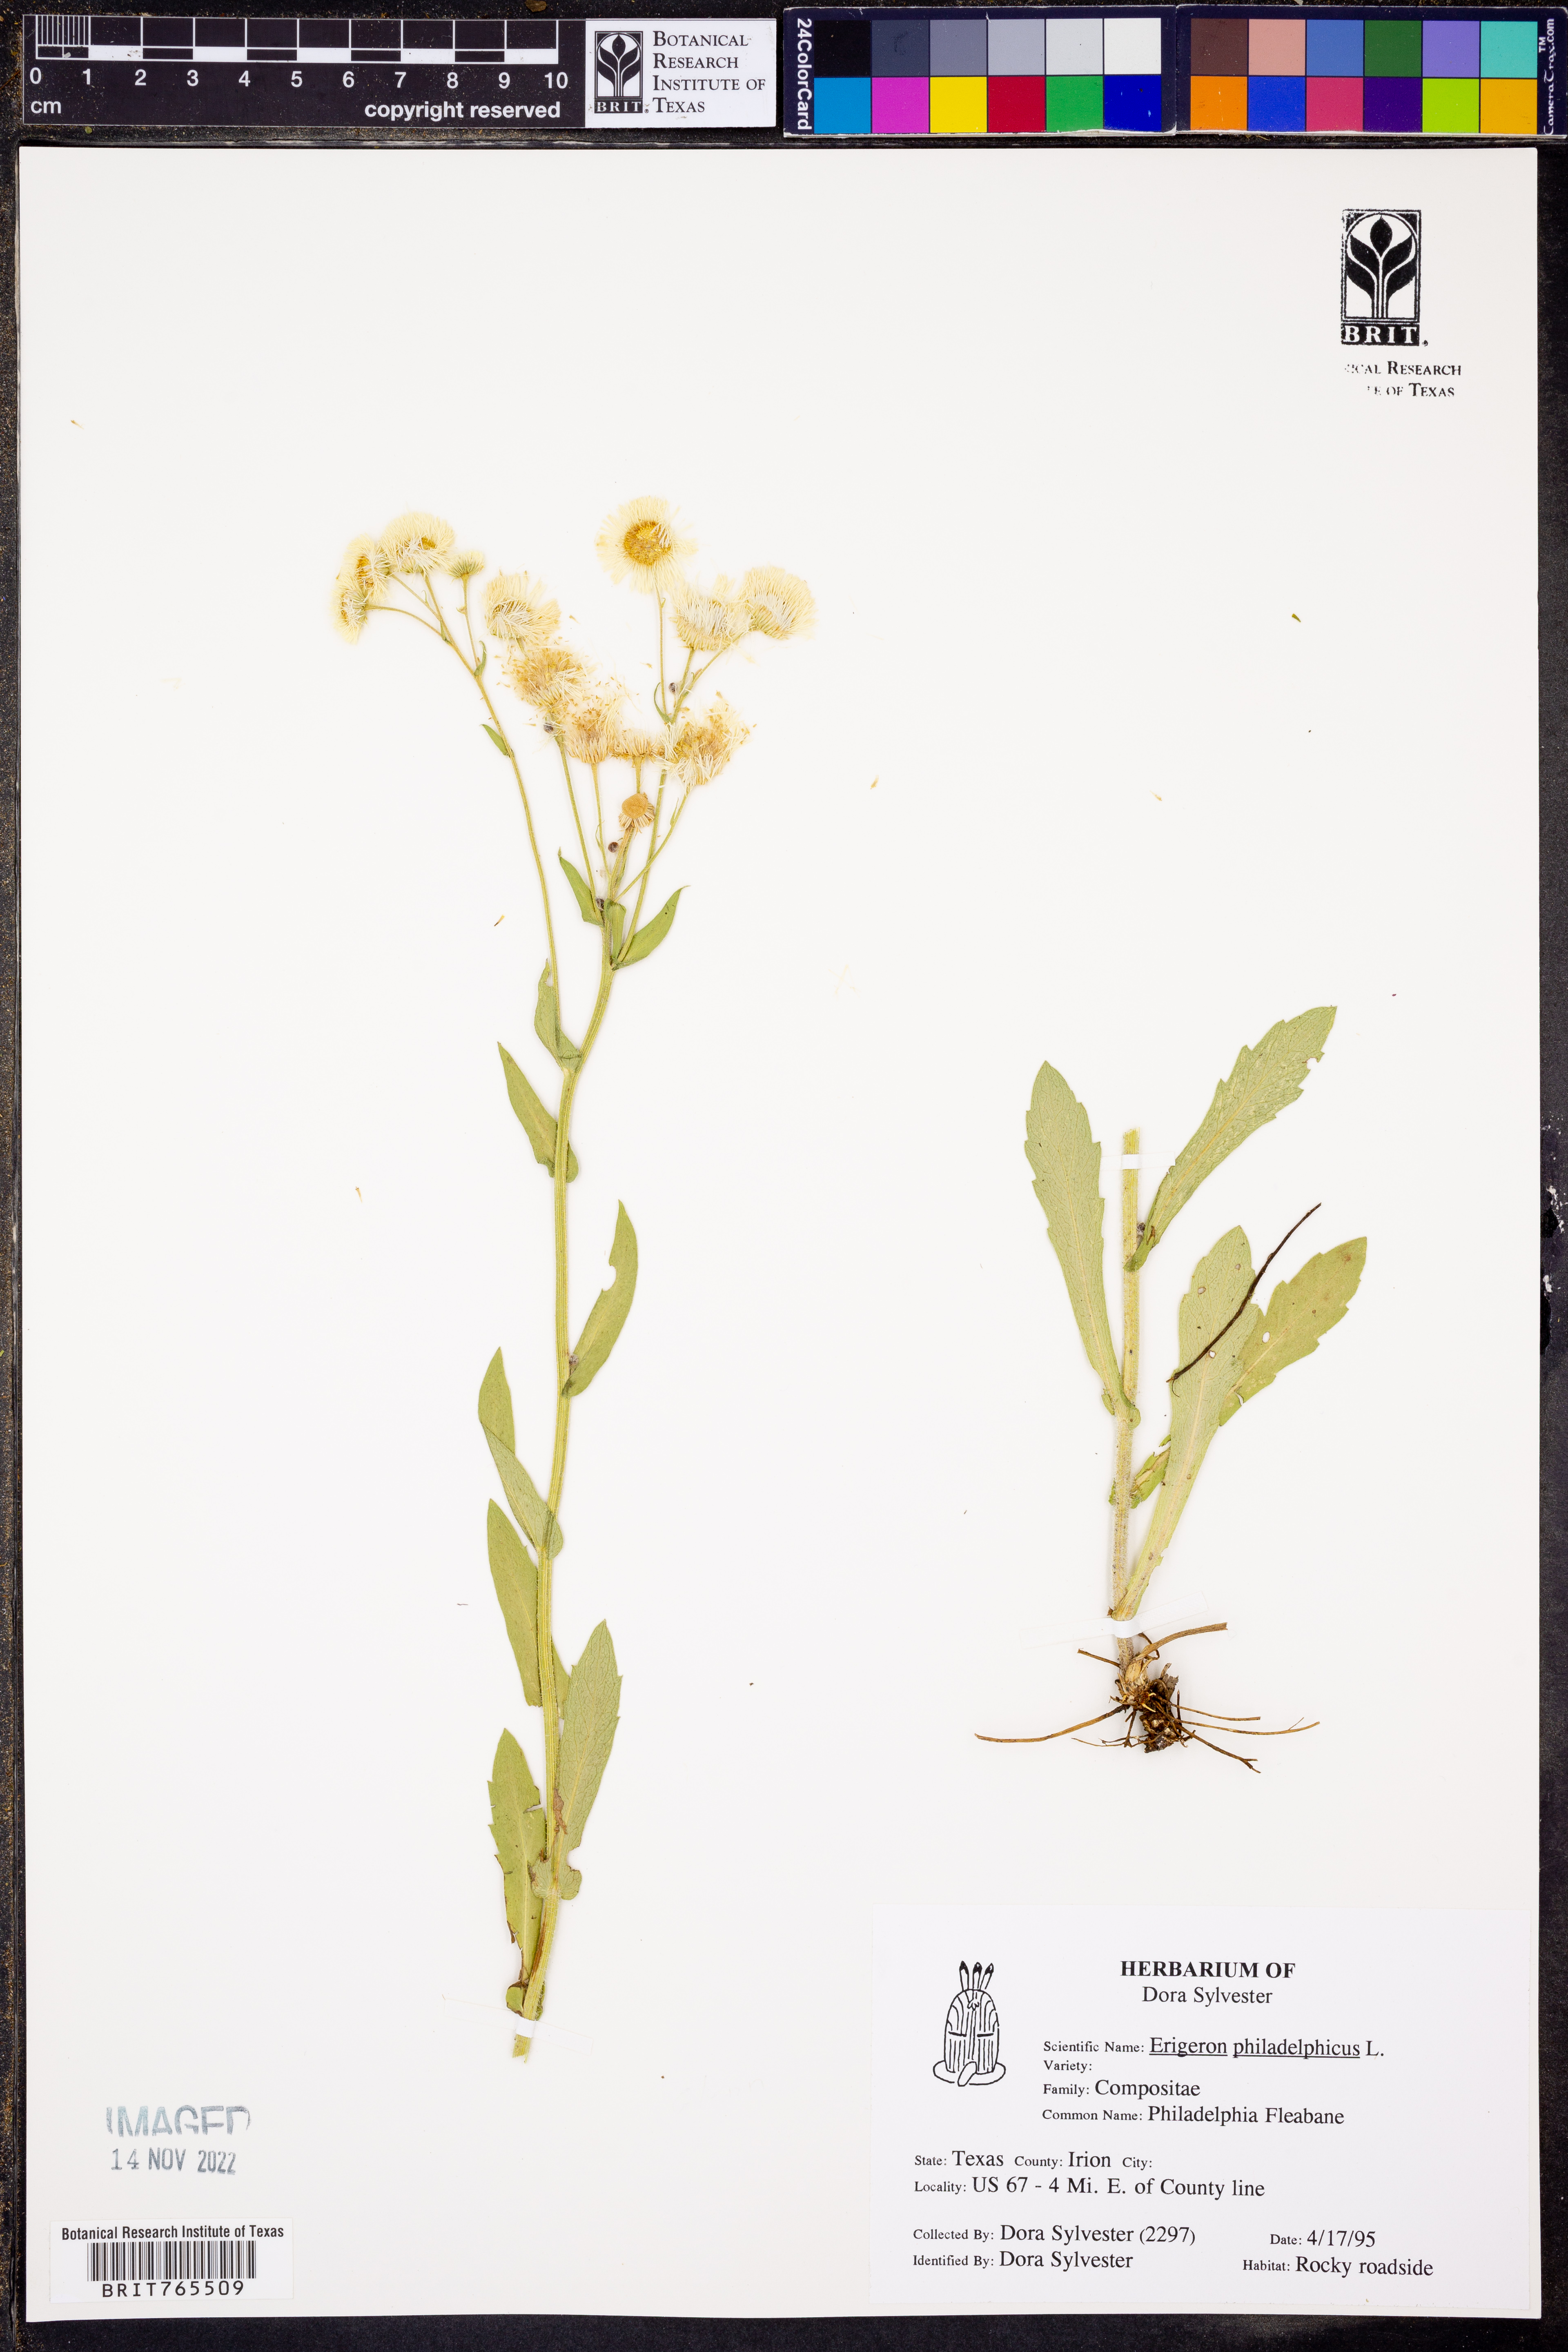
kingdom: Plantae
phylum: Tracheophyta
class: Magnoliopsida
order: Asterales
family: Asteraceae
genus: Erigeron
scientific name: Erigeron philadelphicus
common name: Robin's-plantain
